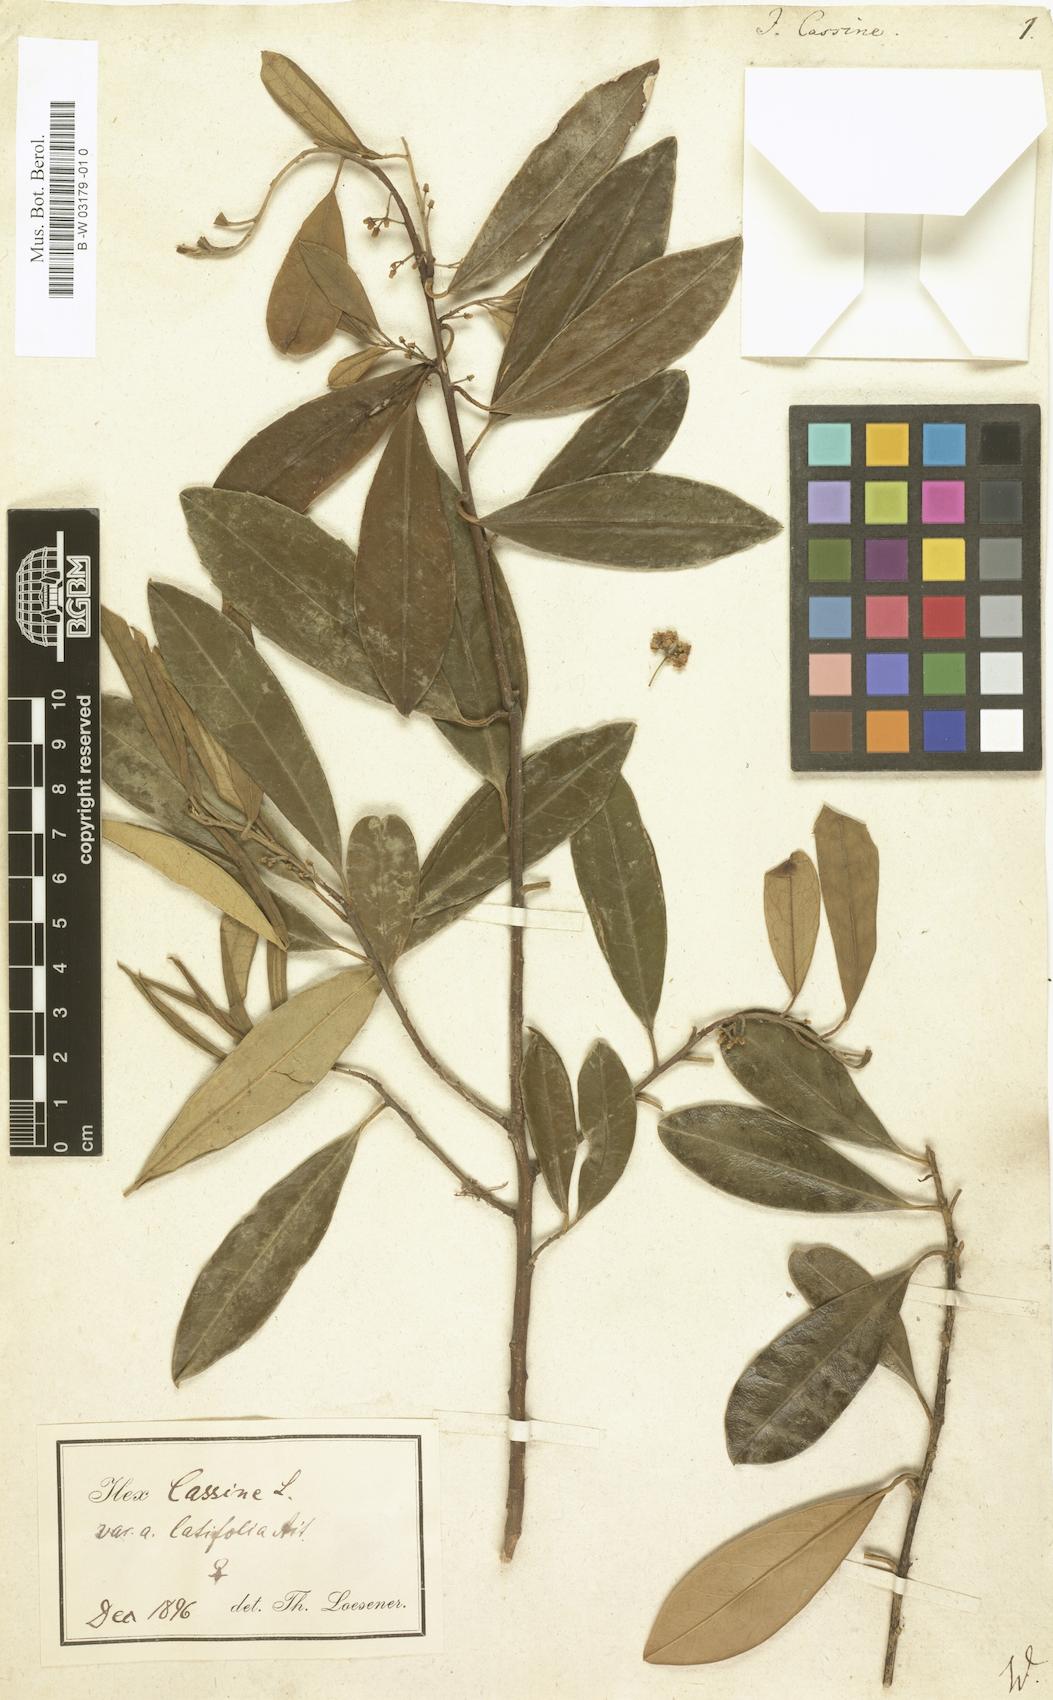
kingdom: Plantae
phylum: Tracheophyta
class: Magnoliopsida
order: Aquifoliales
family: Aquifoliaceae
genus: Ilex
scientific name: Ilex cassine
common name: Dahoon
